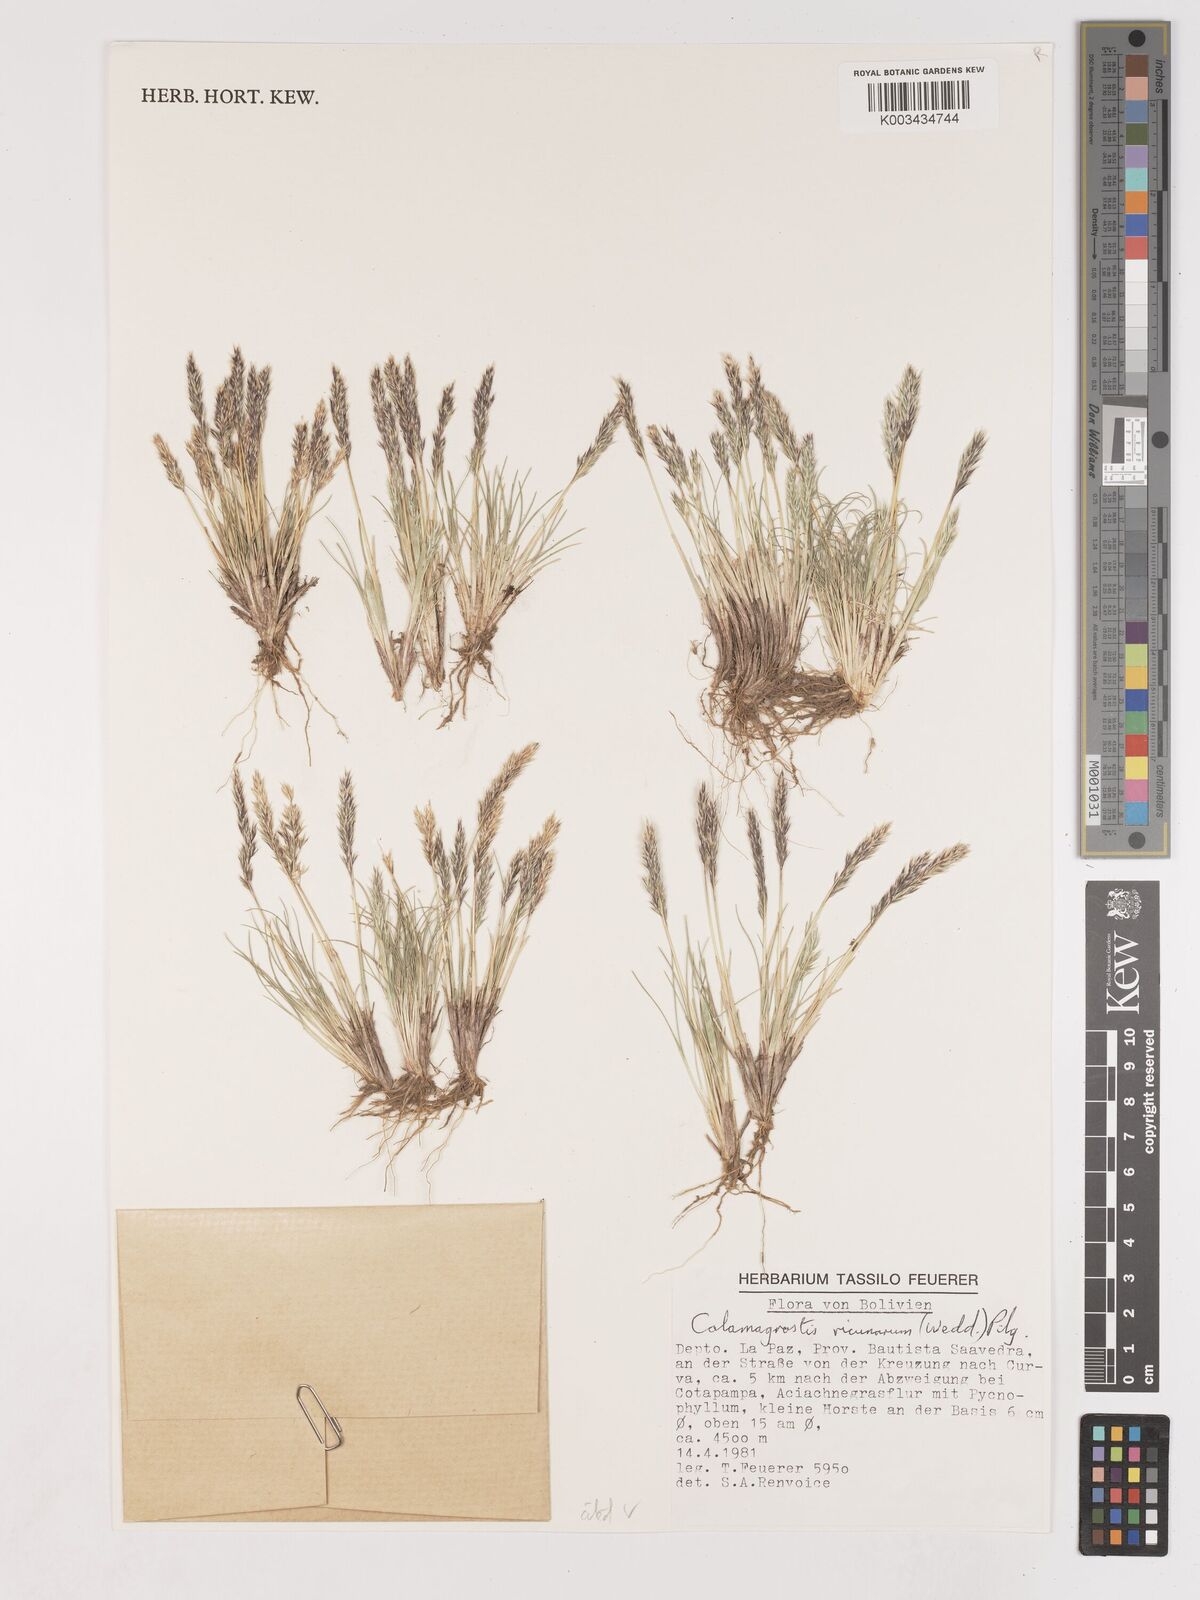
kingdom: Plantae
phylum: Tracheophyta
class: Liliopsida
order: Poales
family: Poaceae
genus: Cinnagrostis
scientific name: Cinnagrostis vicunarum
